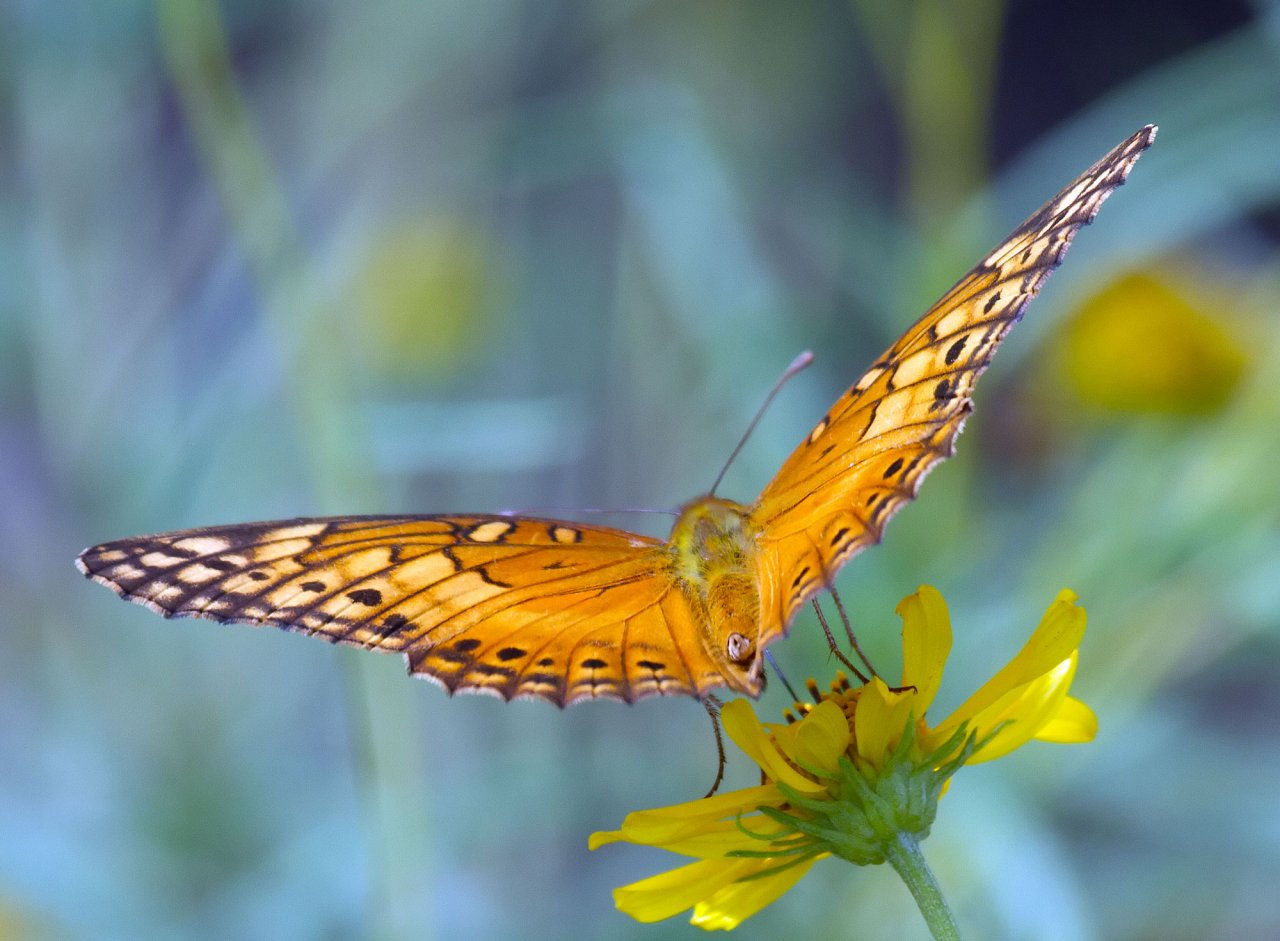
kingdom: Animalia
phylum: Arthropoda
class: Insecta
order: Lepidoptera
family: Nymphalidae
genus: Euptoieta
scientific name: Euptoieta hegesia
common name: Mexican Fritillary
